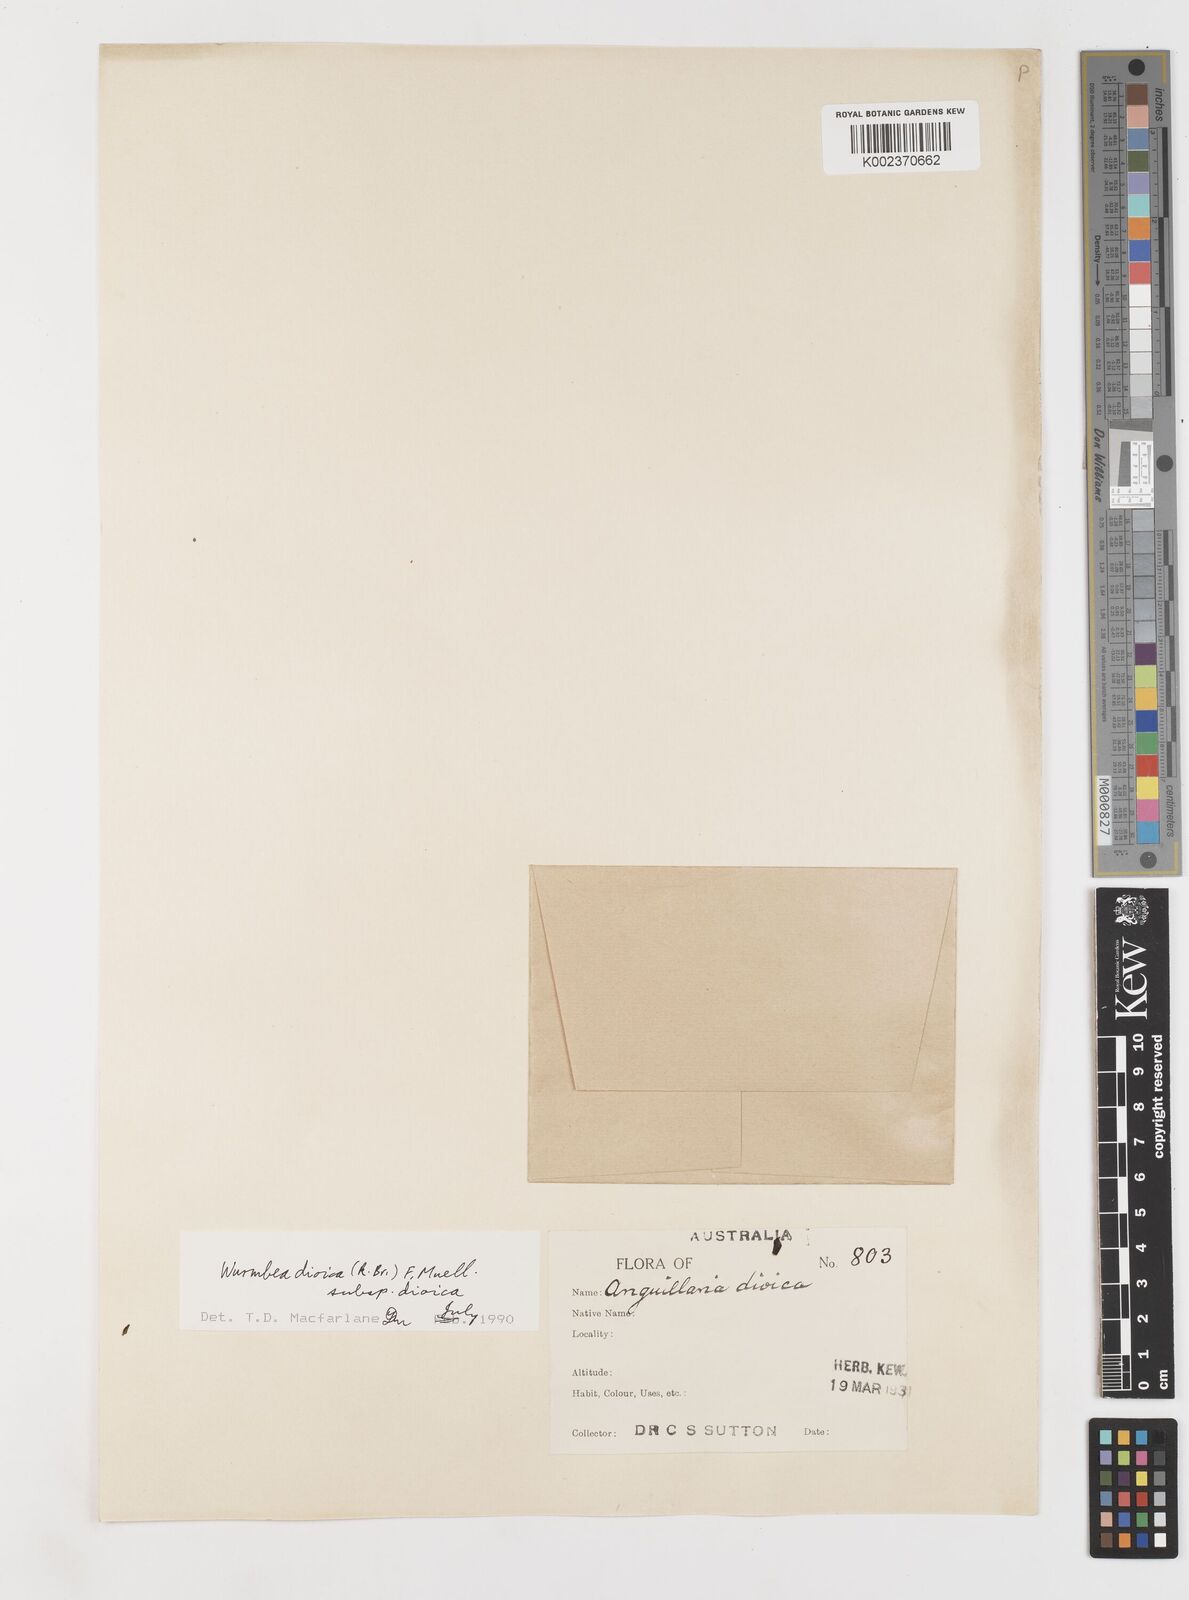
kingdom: Plantae
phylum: Tracheophyta
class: Liliopsida
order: Liliales
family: Colchicaceae
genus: Wurmbea
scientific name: Wurmbea dioica
